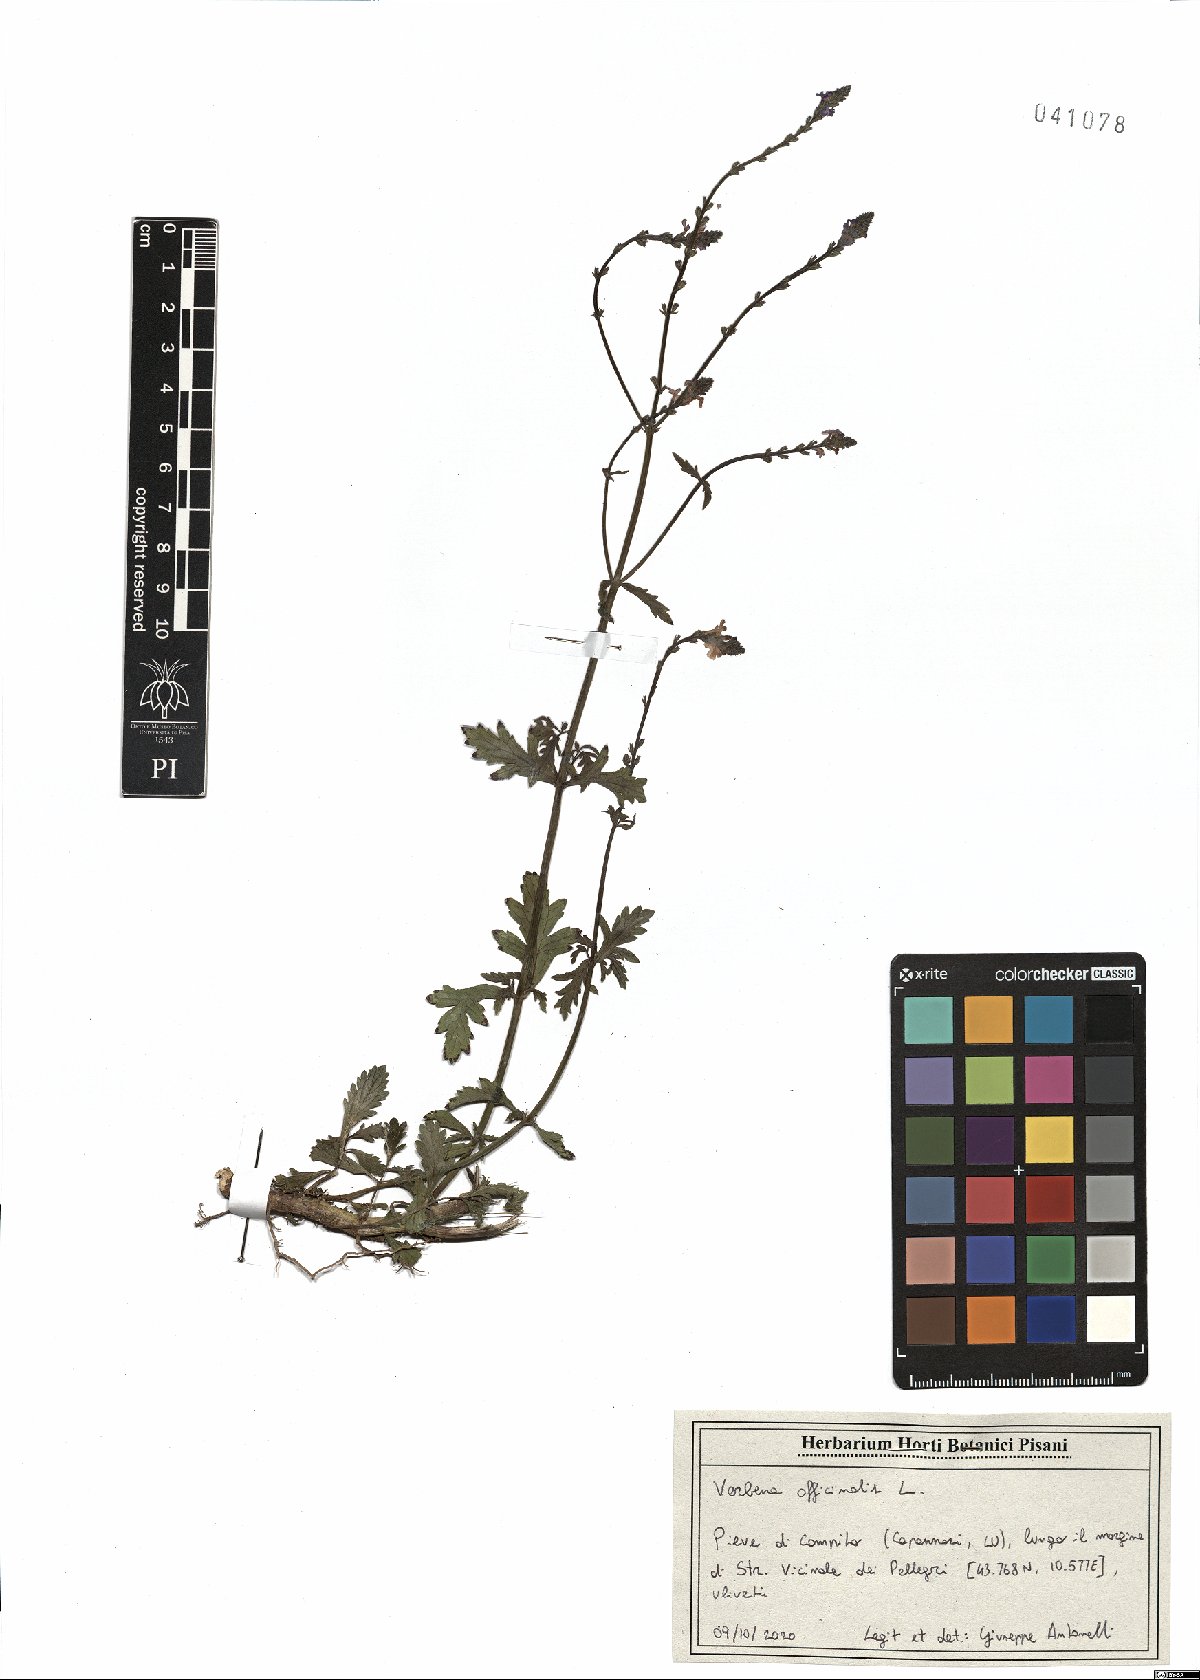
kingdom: Plantae
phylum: Tracheophyta
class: Magnoliopsida
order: Lamiales
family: Verbenaceae
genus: Verbena
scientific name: Verbena officinalis
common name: Vervain
